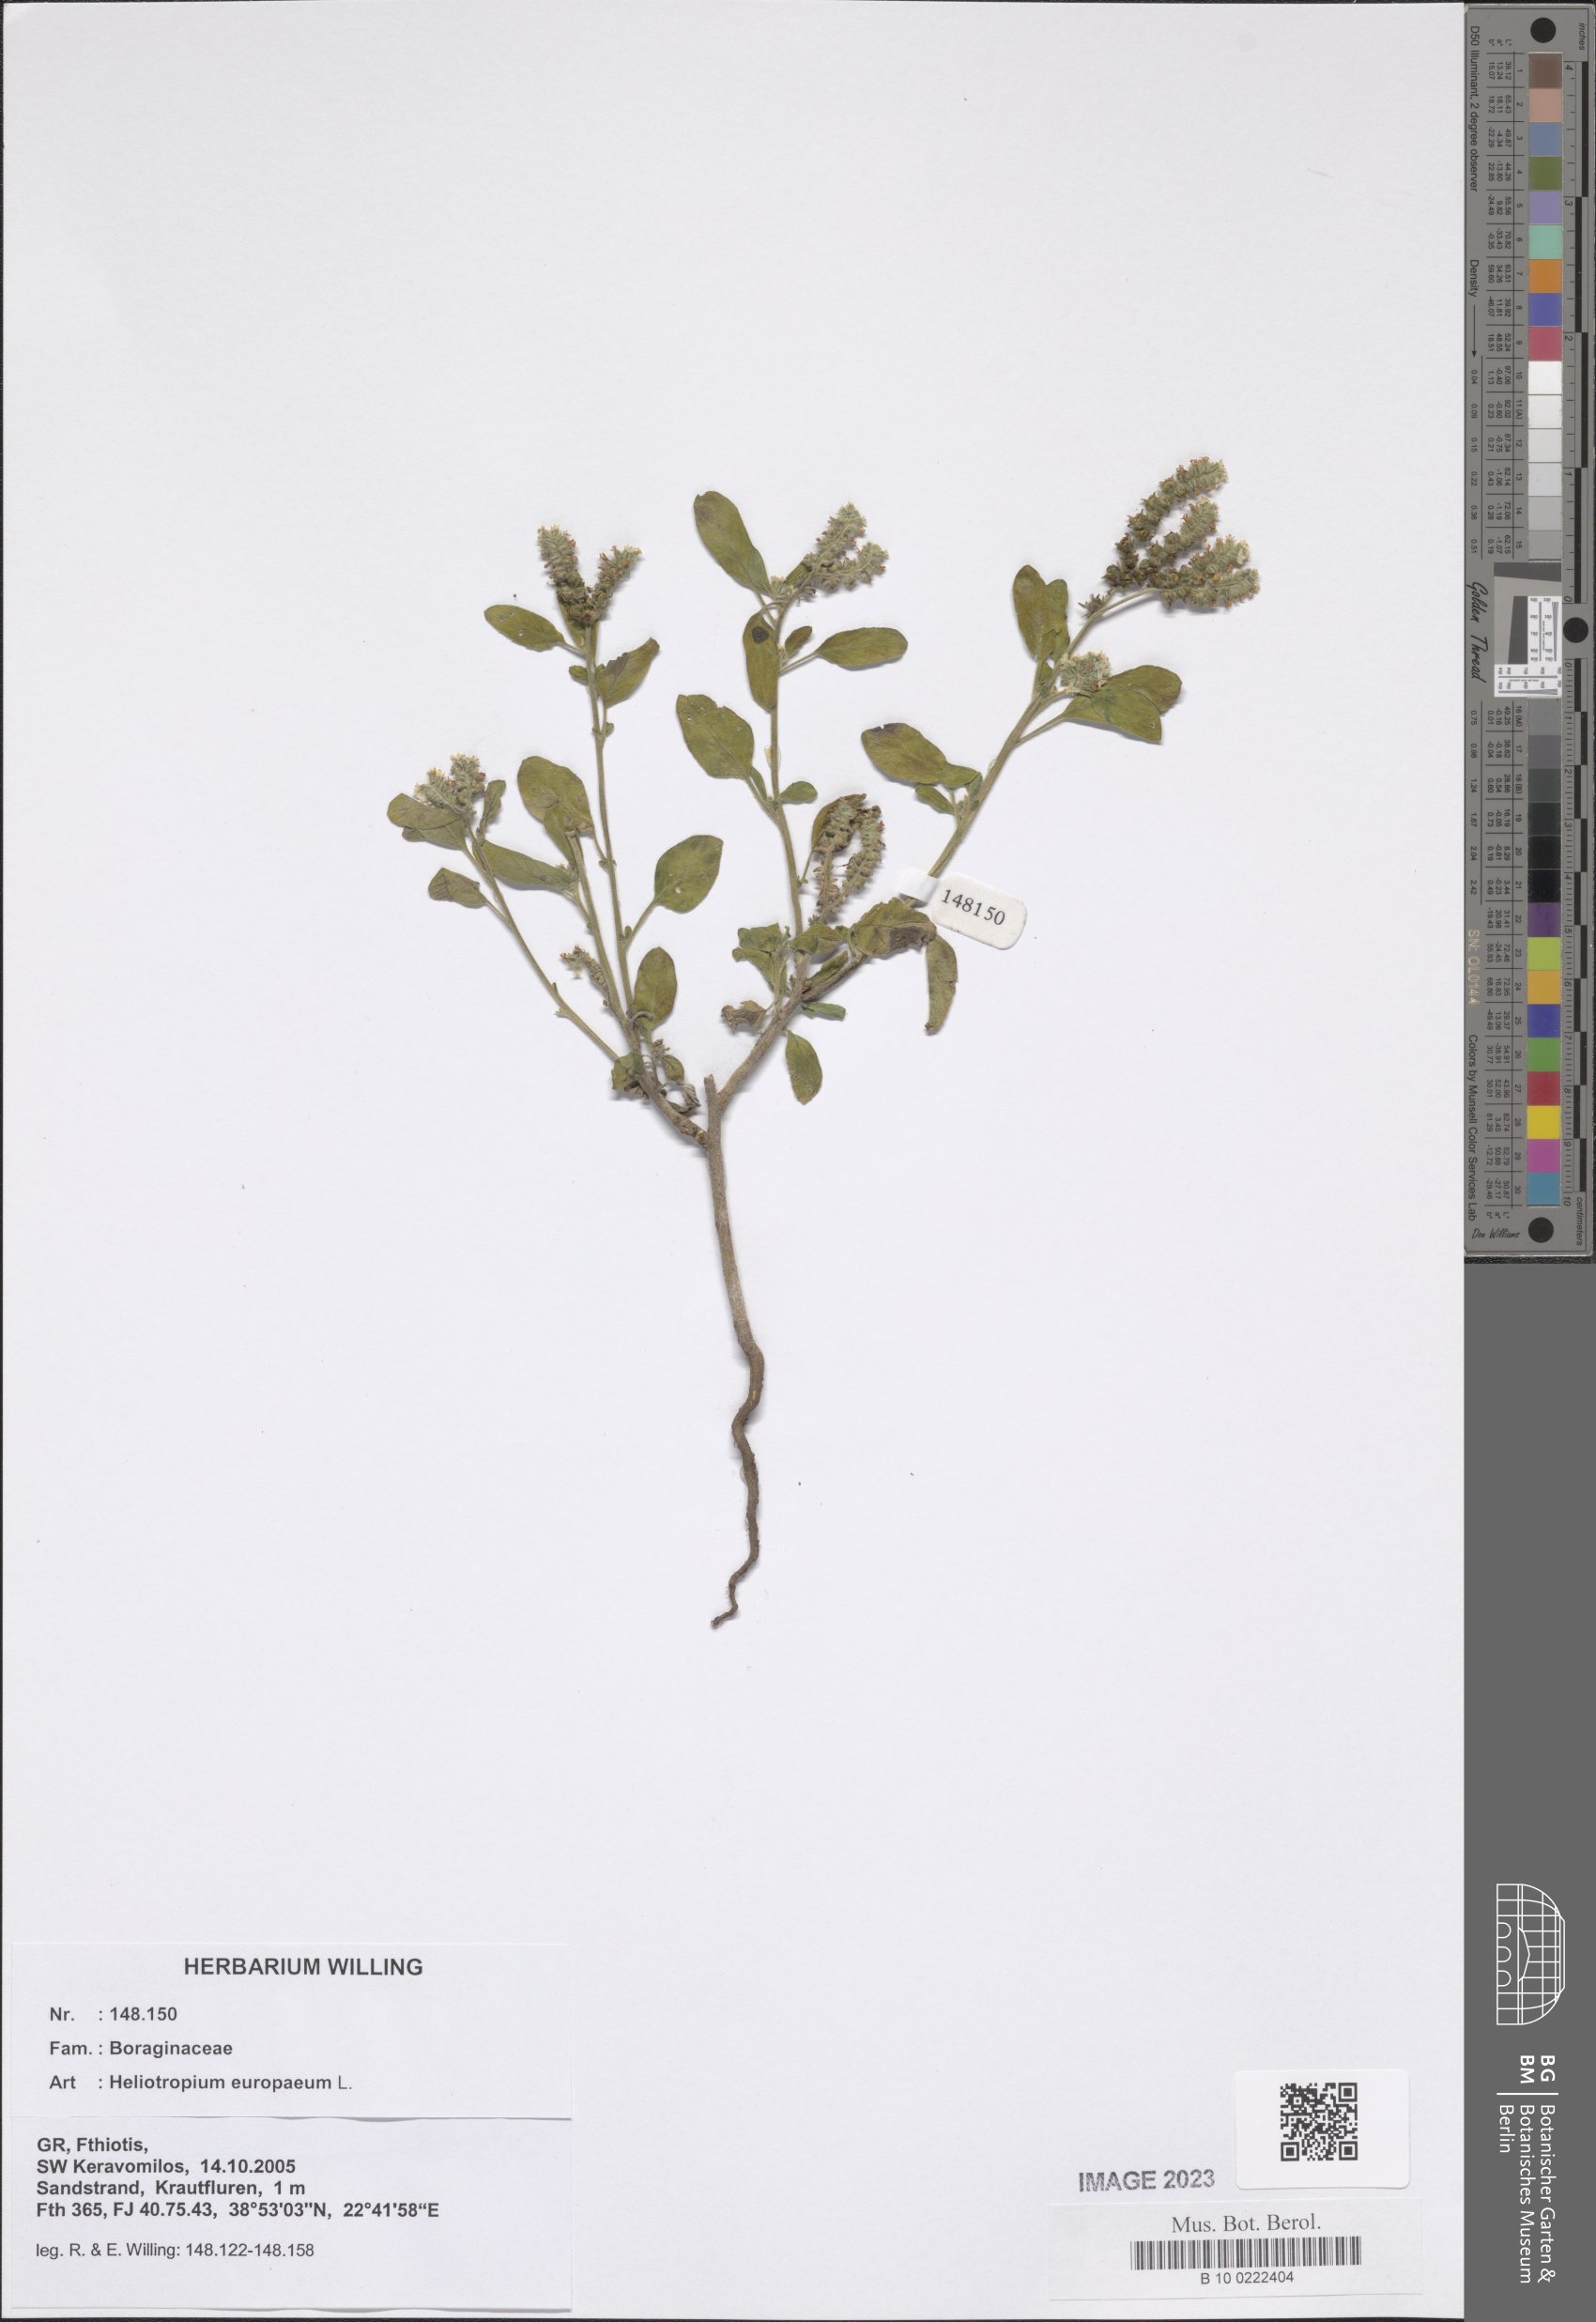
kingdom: Plantae
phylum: Tracheophyta
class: Magnoliopsida
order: Boraginales
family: Heliotropiaceae
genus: Heliotropium
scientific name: Heliotropium europaeum
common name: European heliotrope
